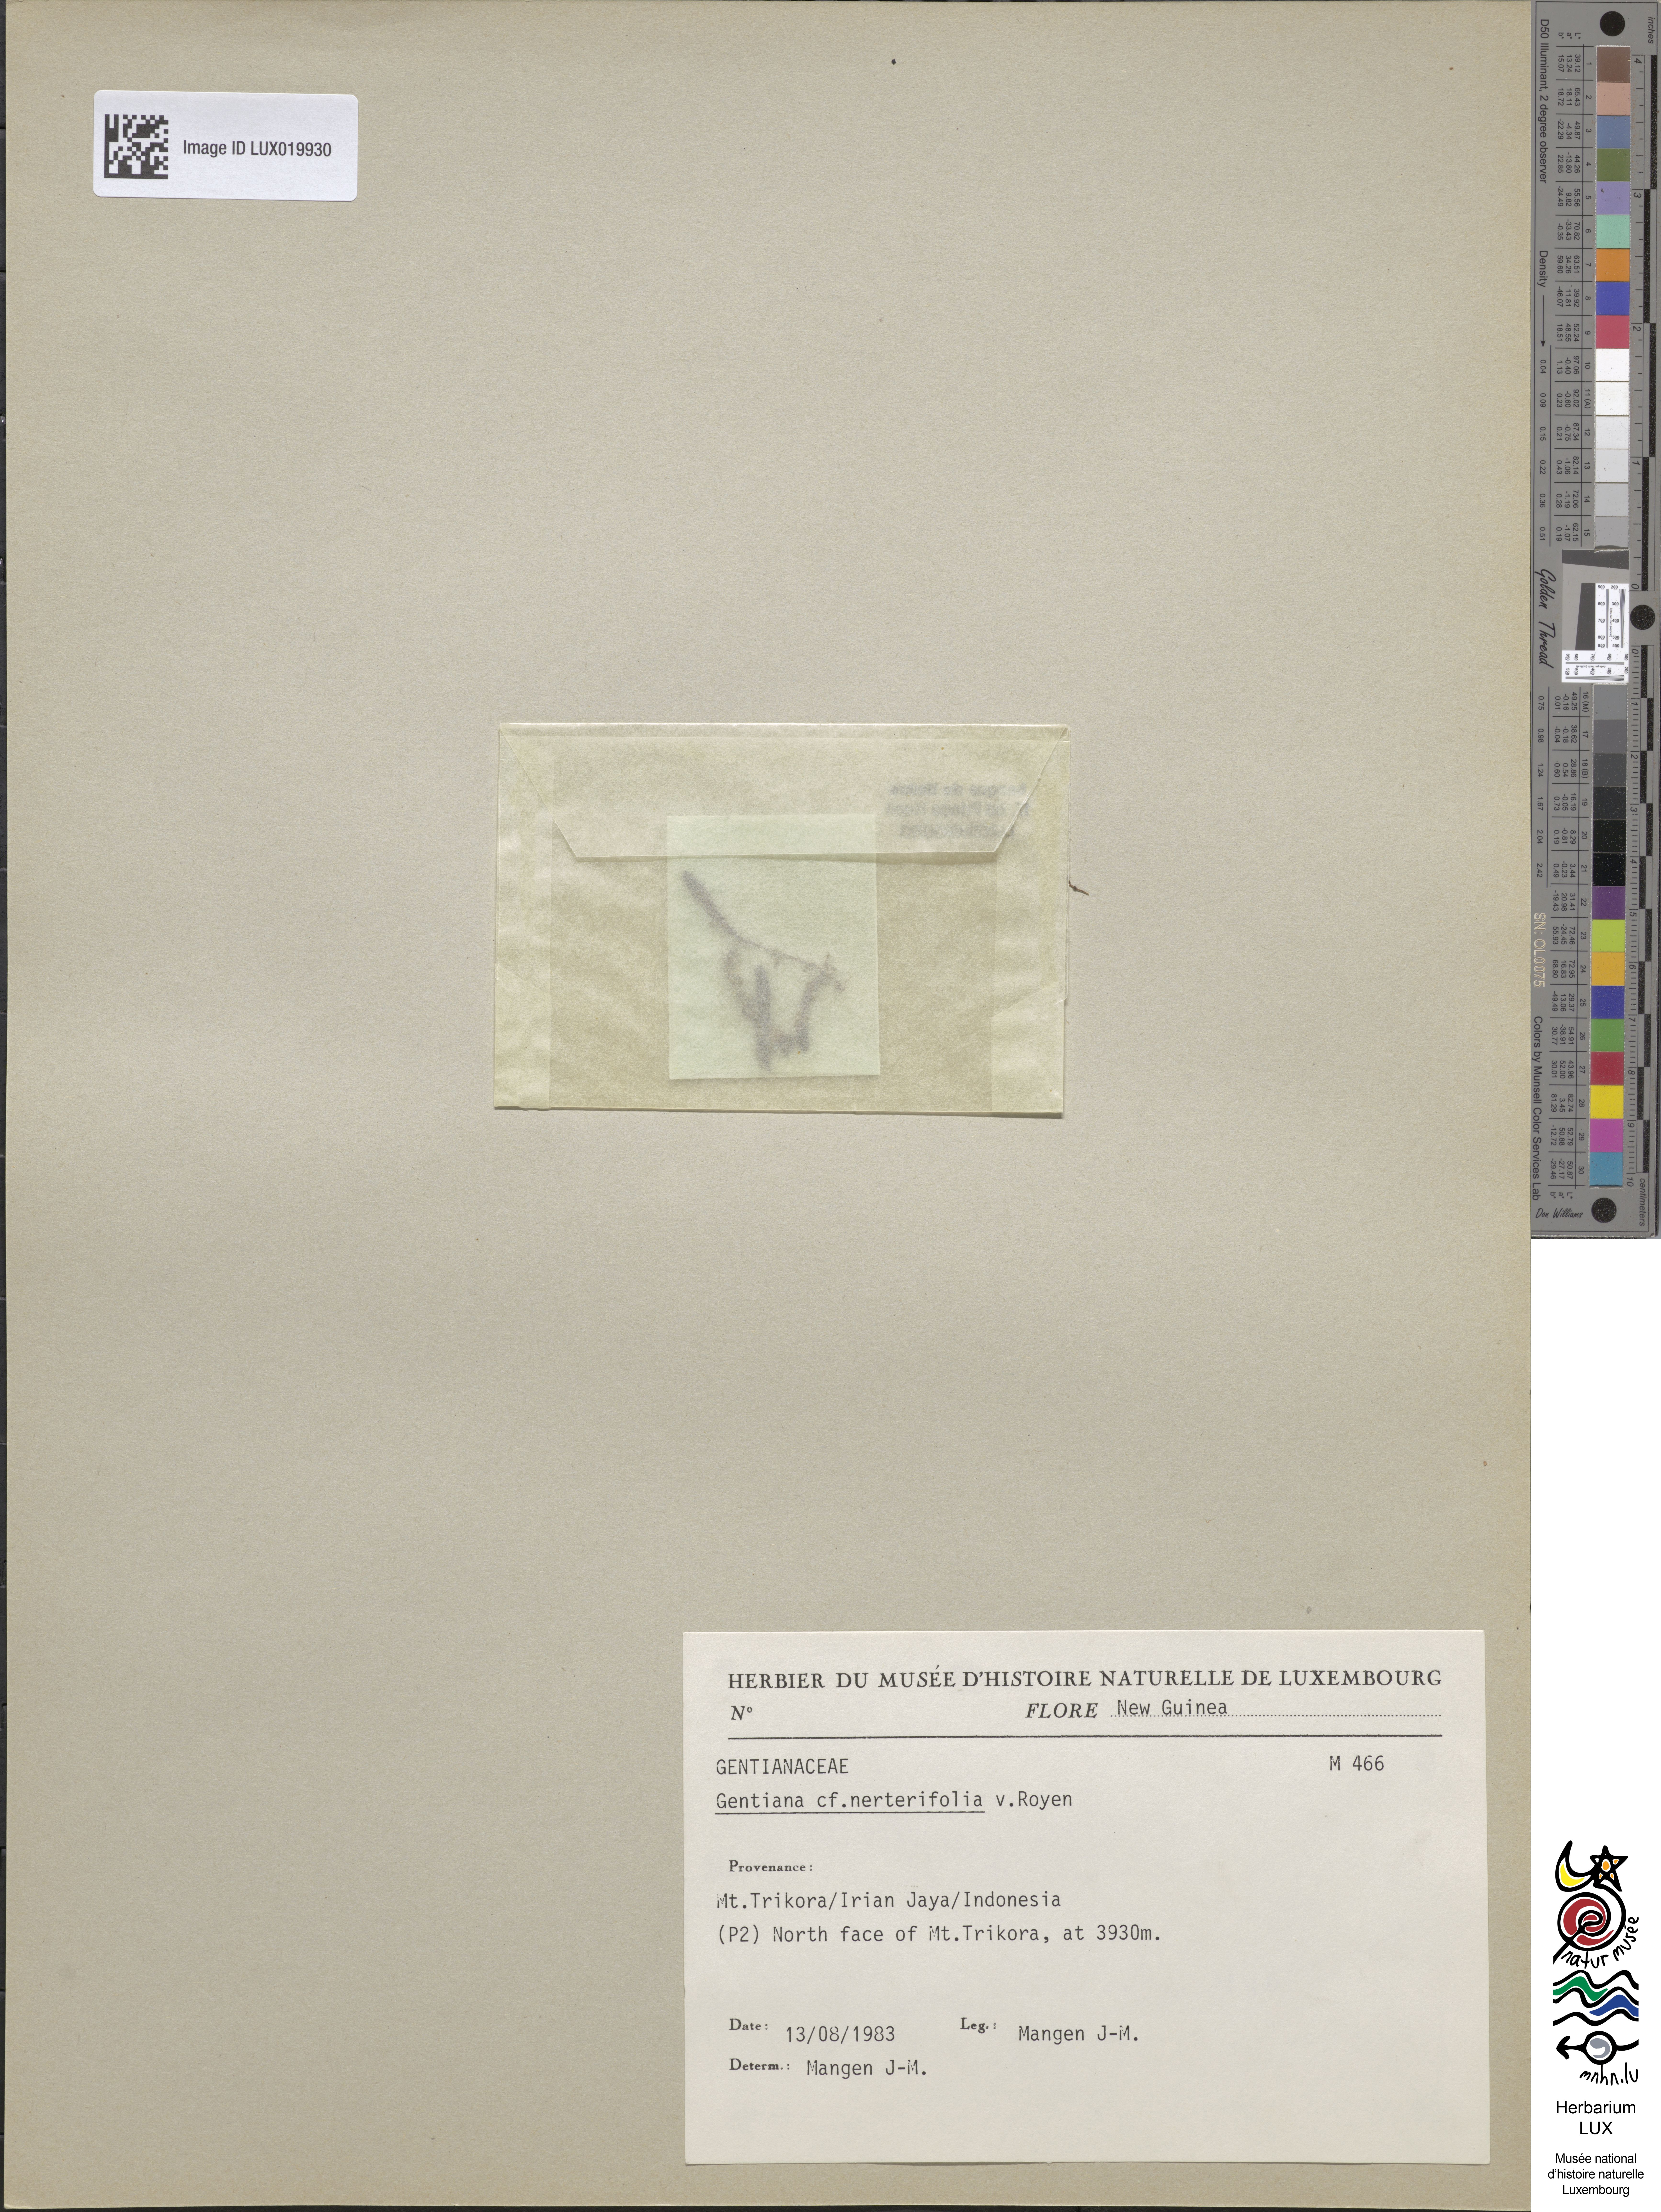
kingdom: Plantae
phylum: Tracheophyta
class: Magnoliopsida
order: Gentianales
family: Gentianaceae
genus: Gentiana
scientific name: Gentiana cruttwellii
